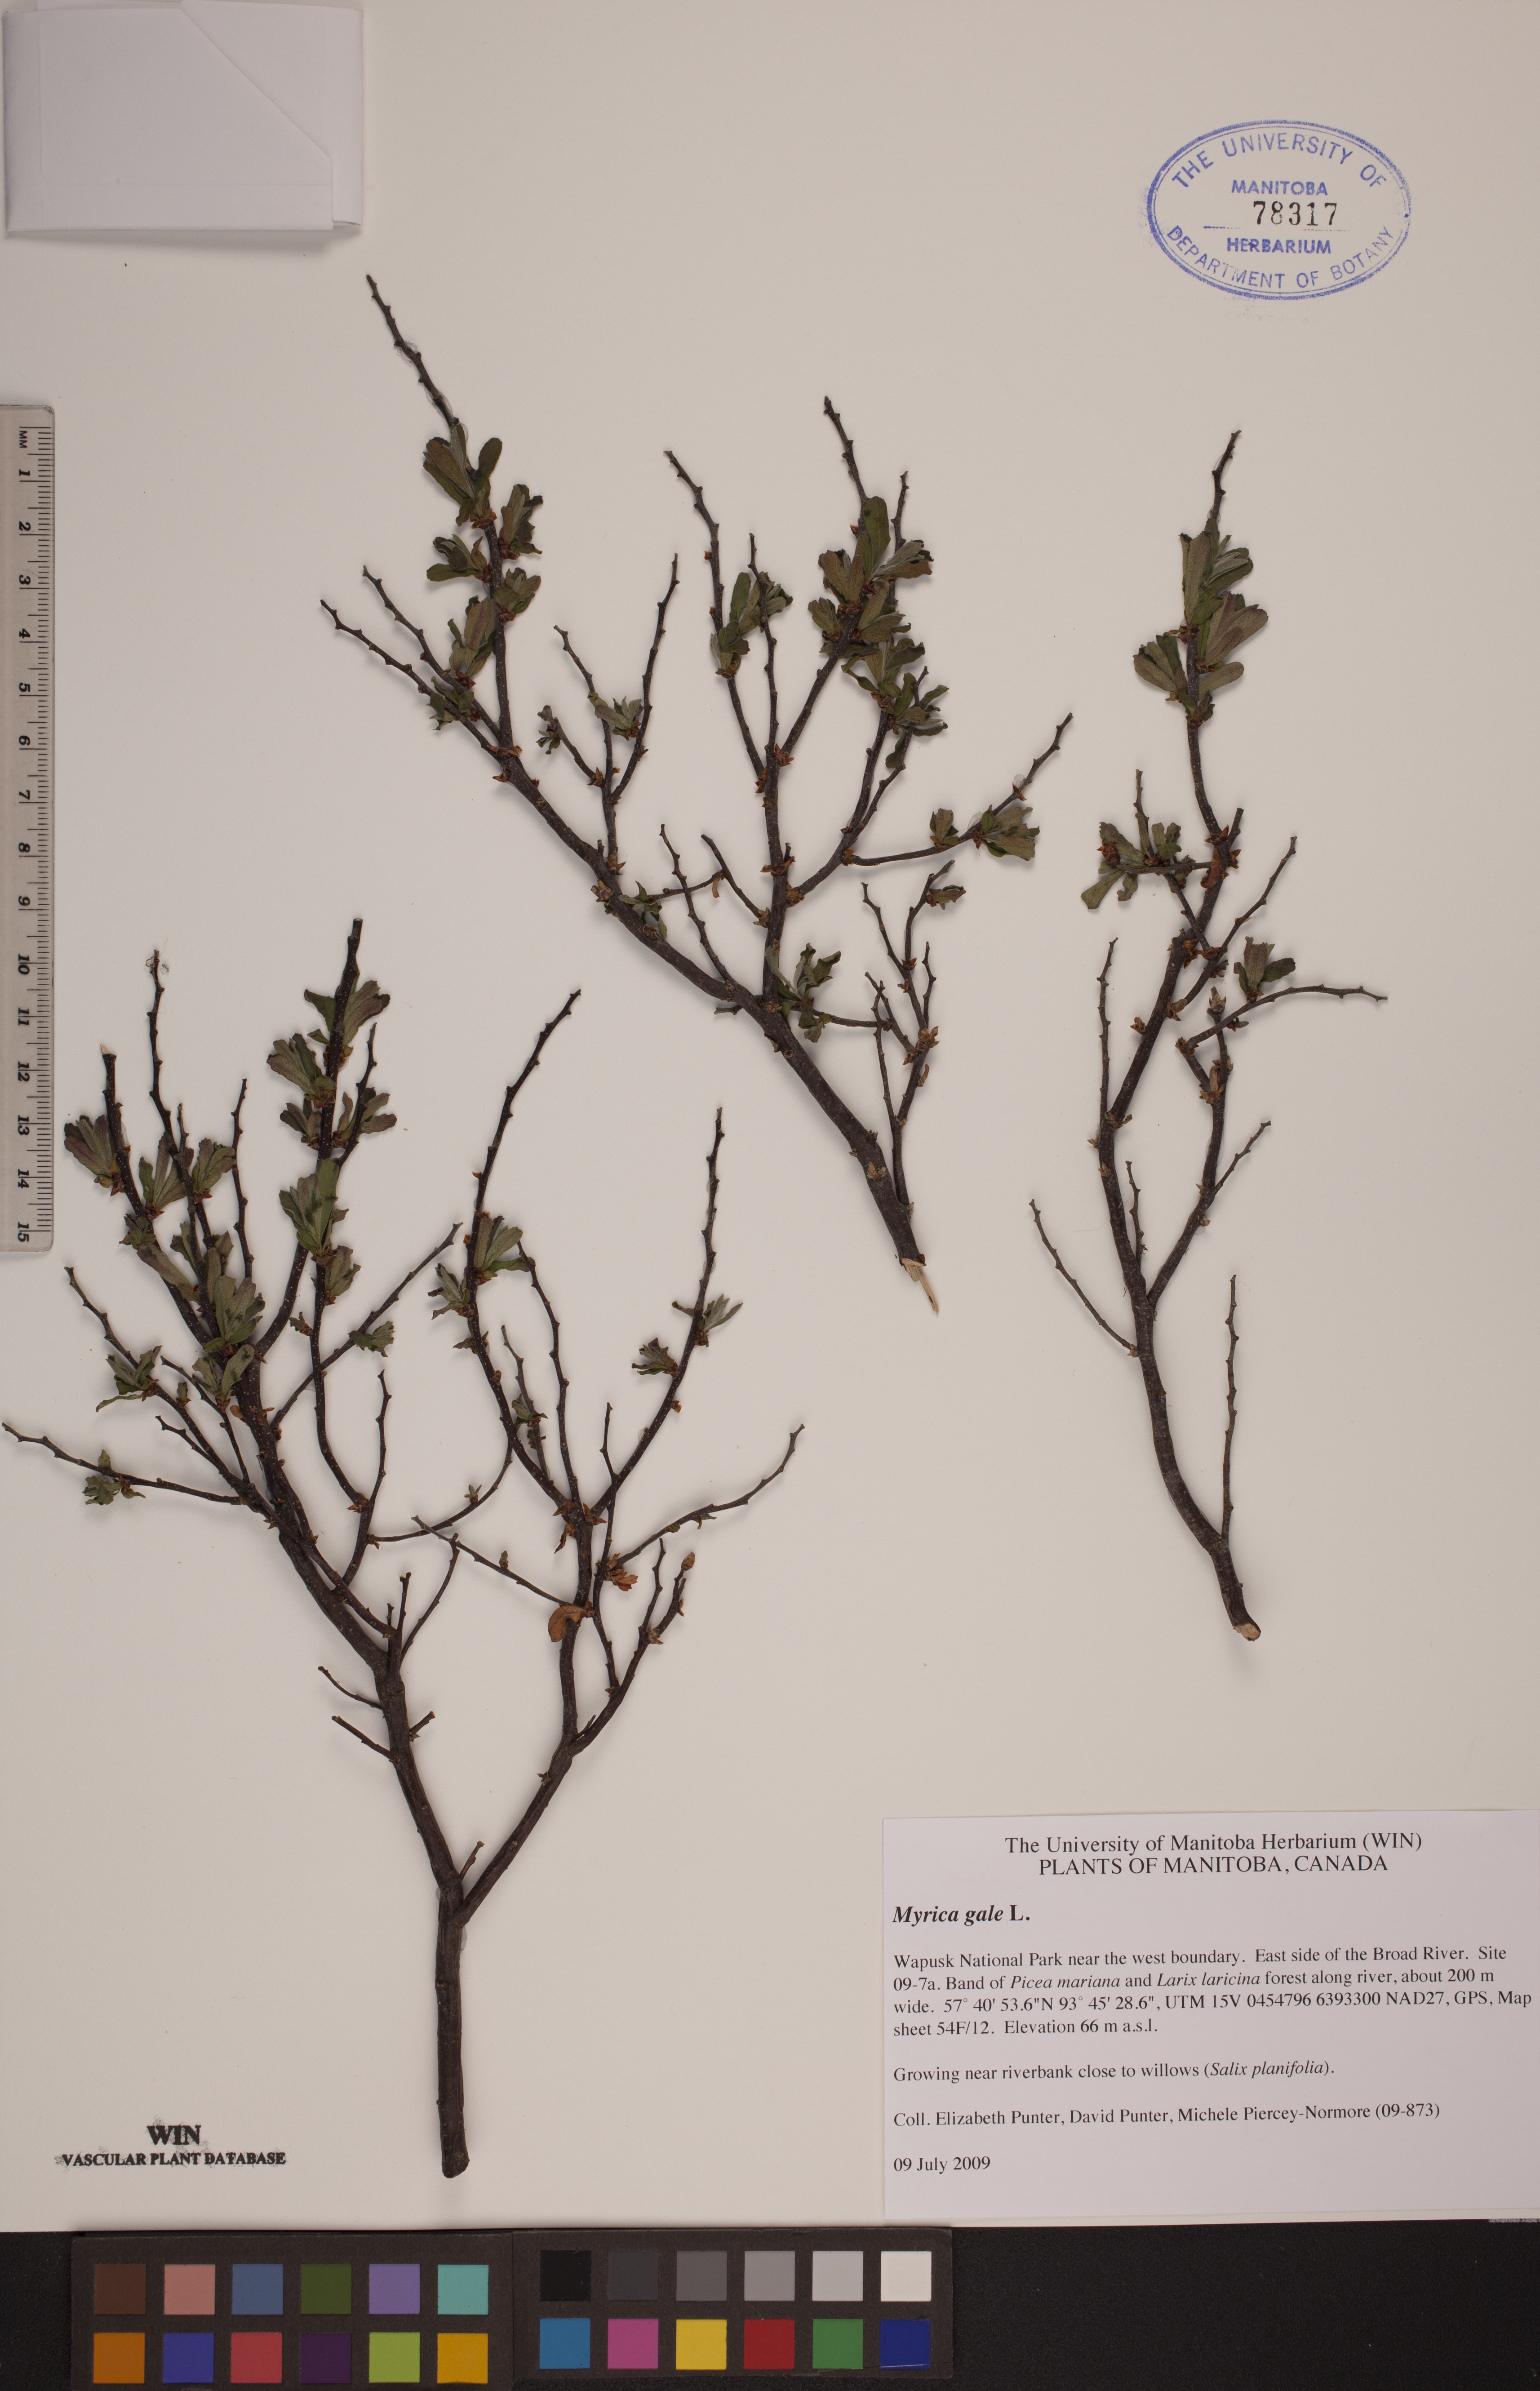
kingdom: Plantae
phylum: Tracheophyta
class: Magnoliopsida
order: Fagales
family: Myricaceae
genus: Myrica
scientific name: Myrica gale
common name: Sweet gale
